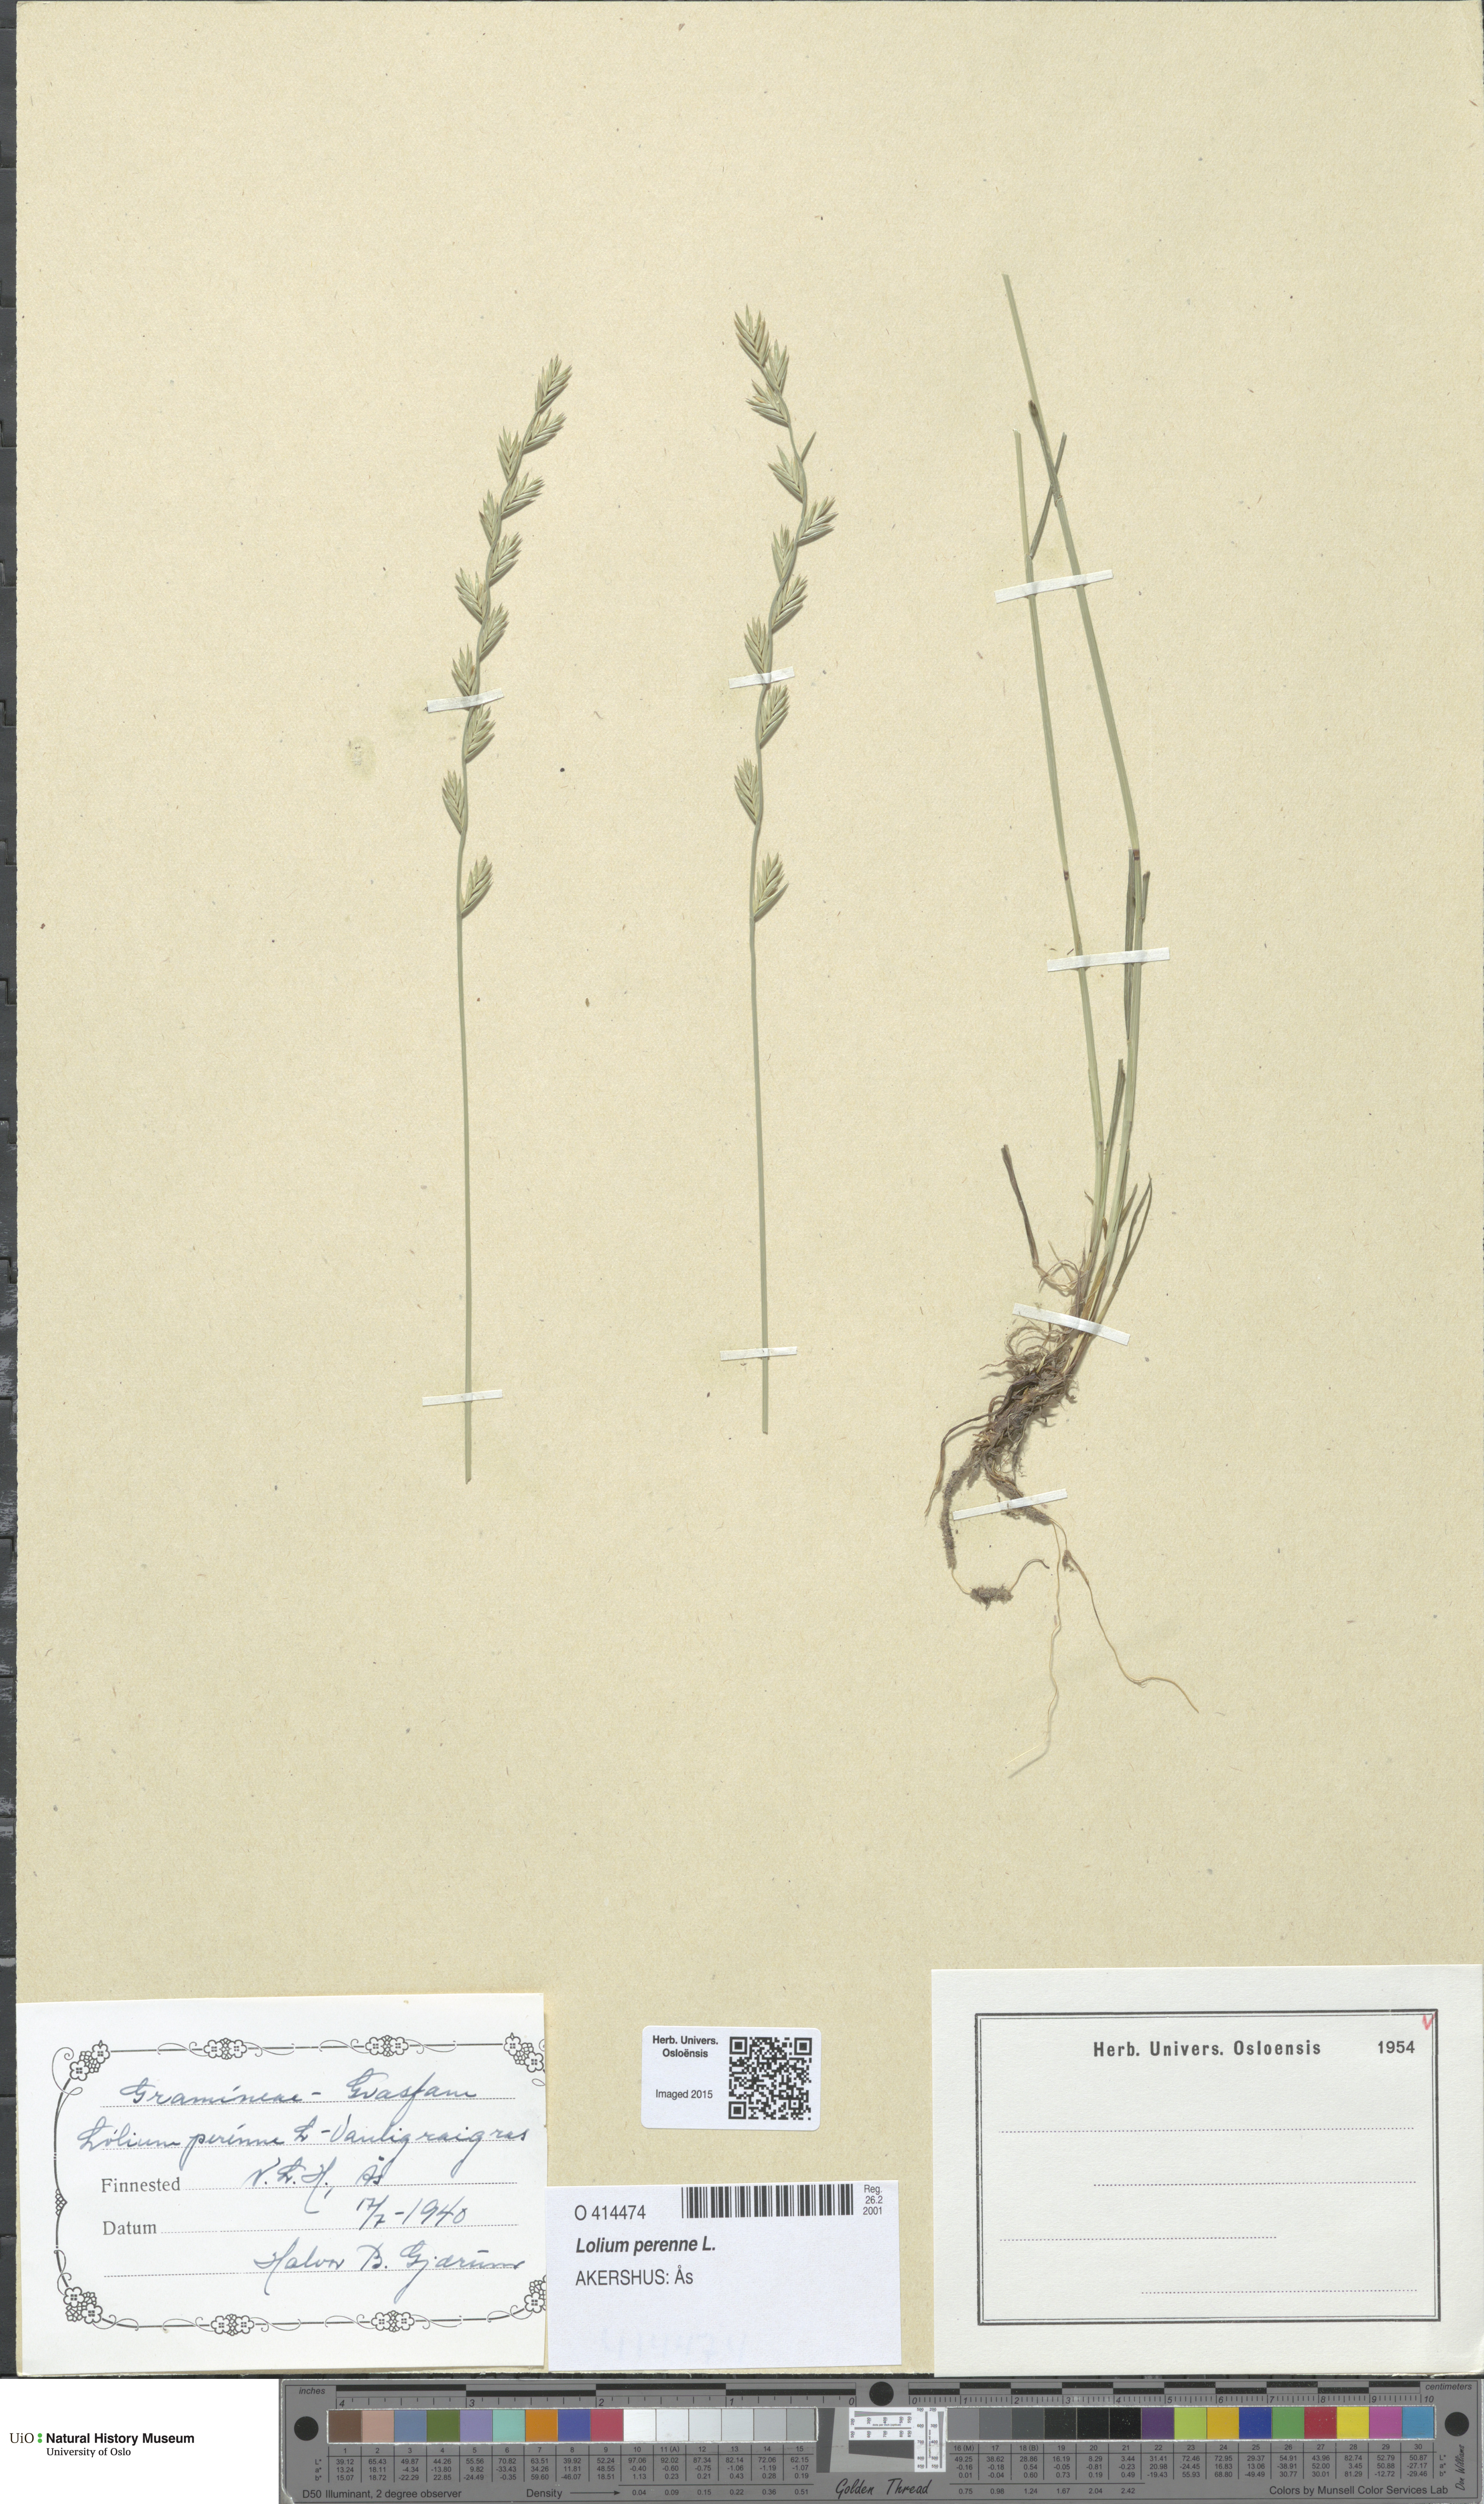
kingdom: Plantae
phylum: Tracheophyta
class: Liliopsida
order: Poales
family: Poaceae
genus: Lolium
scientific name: Lolium perenne
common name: Perennial ryegrass
